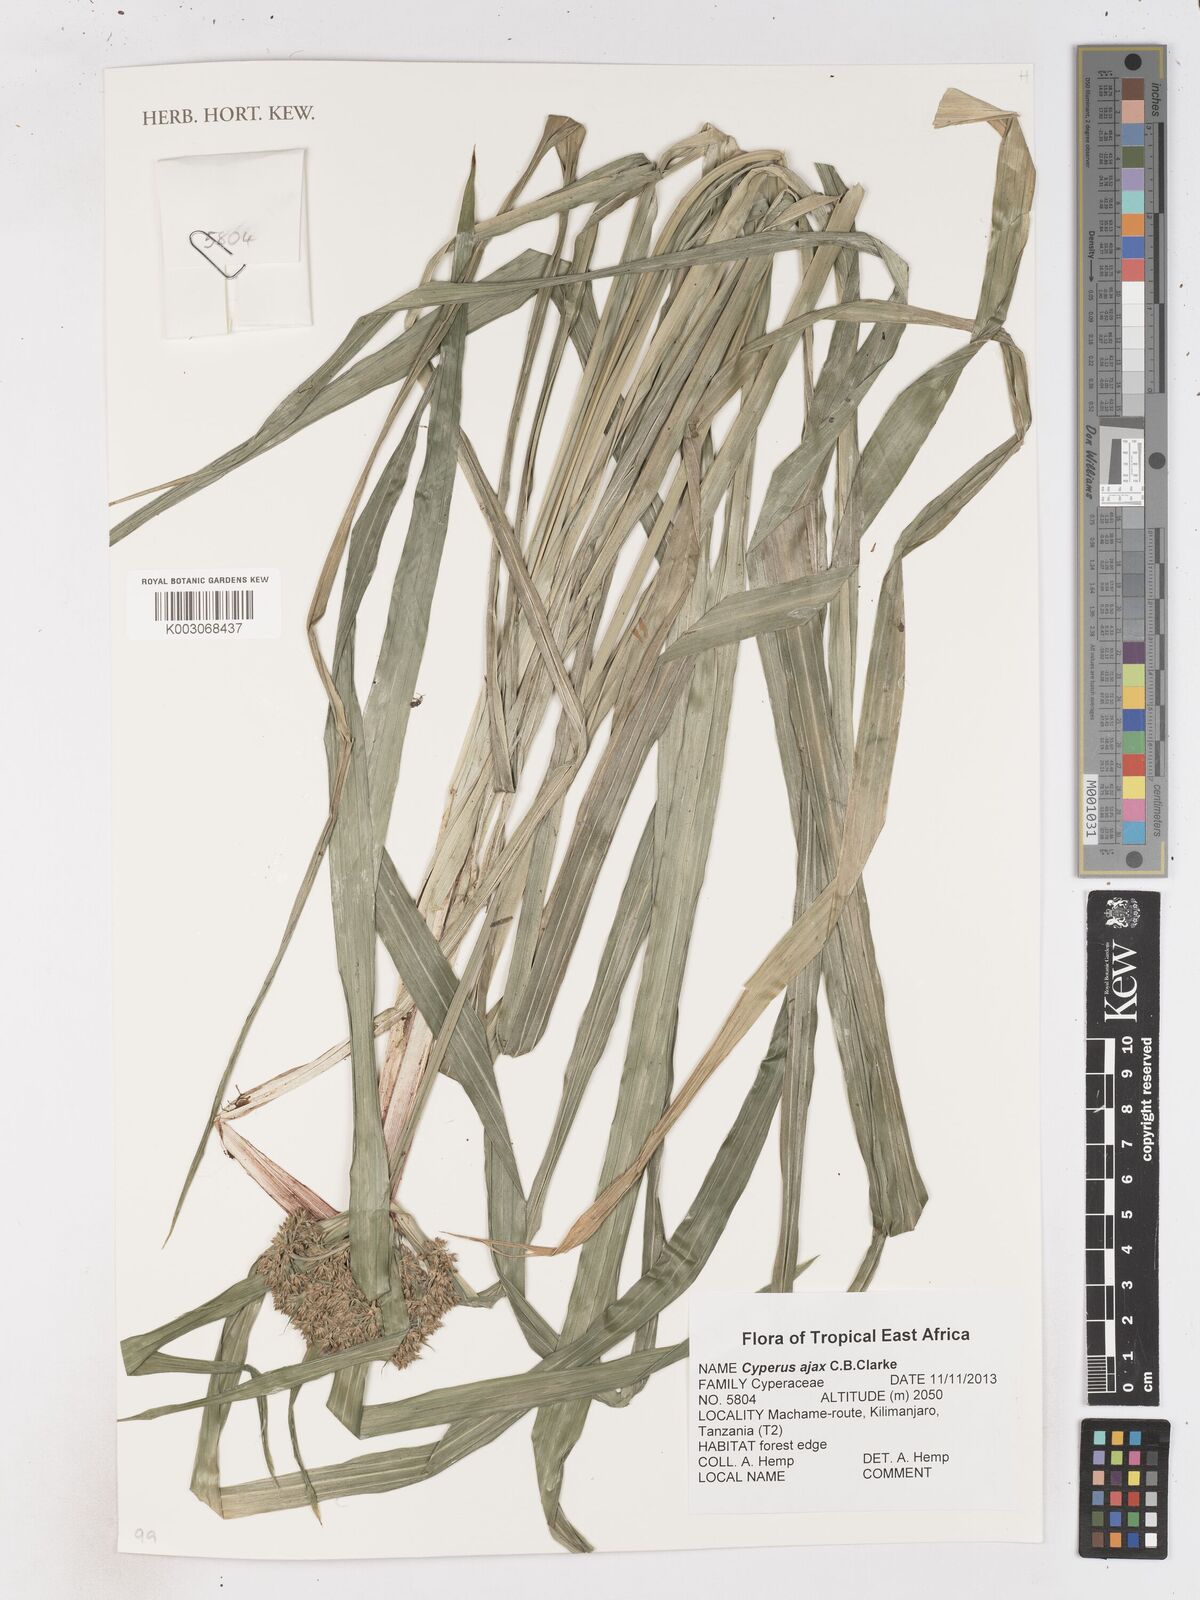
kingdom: Plantae
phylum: Tracheophyta
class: Liliopsida
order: Poales
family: Cyperaceae
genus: Cyperus
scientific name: Cyperus ajax
